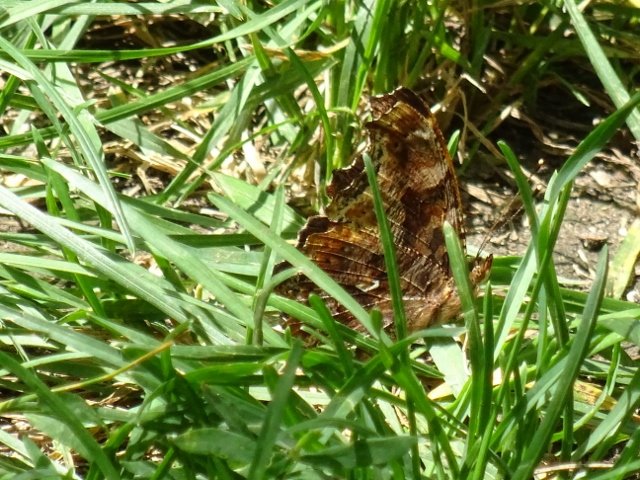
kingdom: Animalia
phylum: Arthropoda
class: Insecta
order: Lepidoptera
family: Nymphalidae
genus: Polygonia
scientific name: Polygonia comma
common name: Eastern Comma
